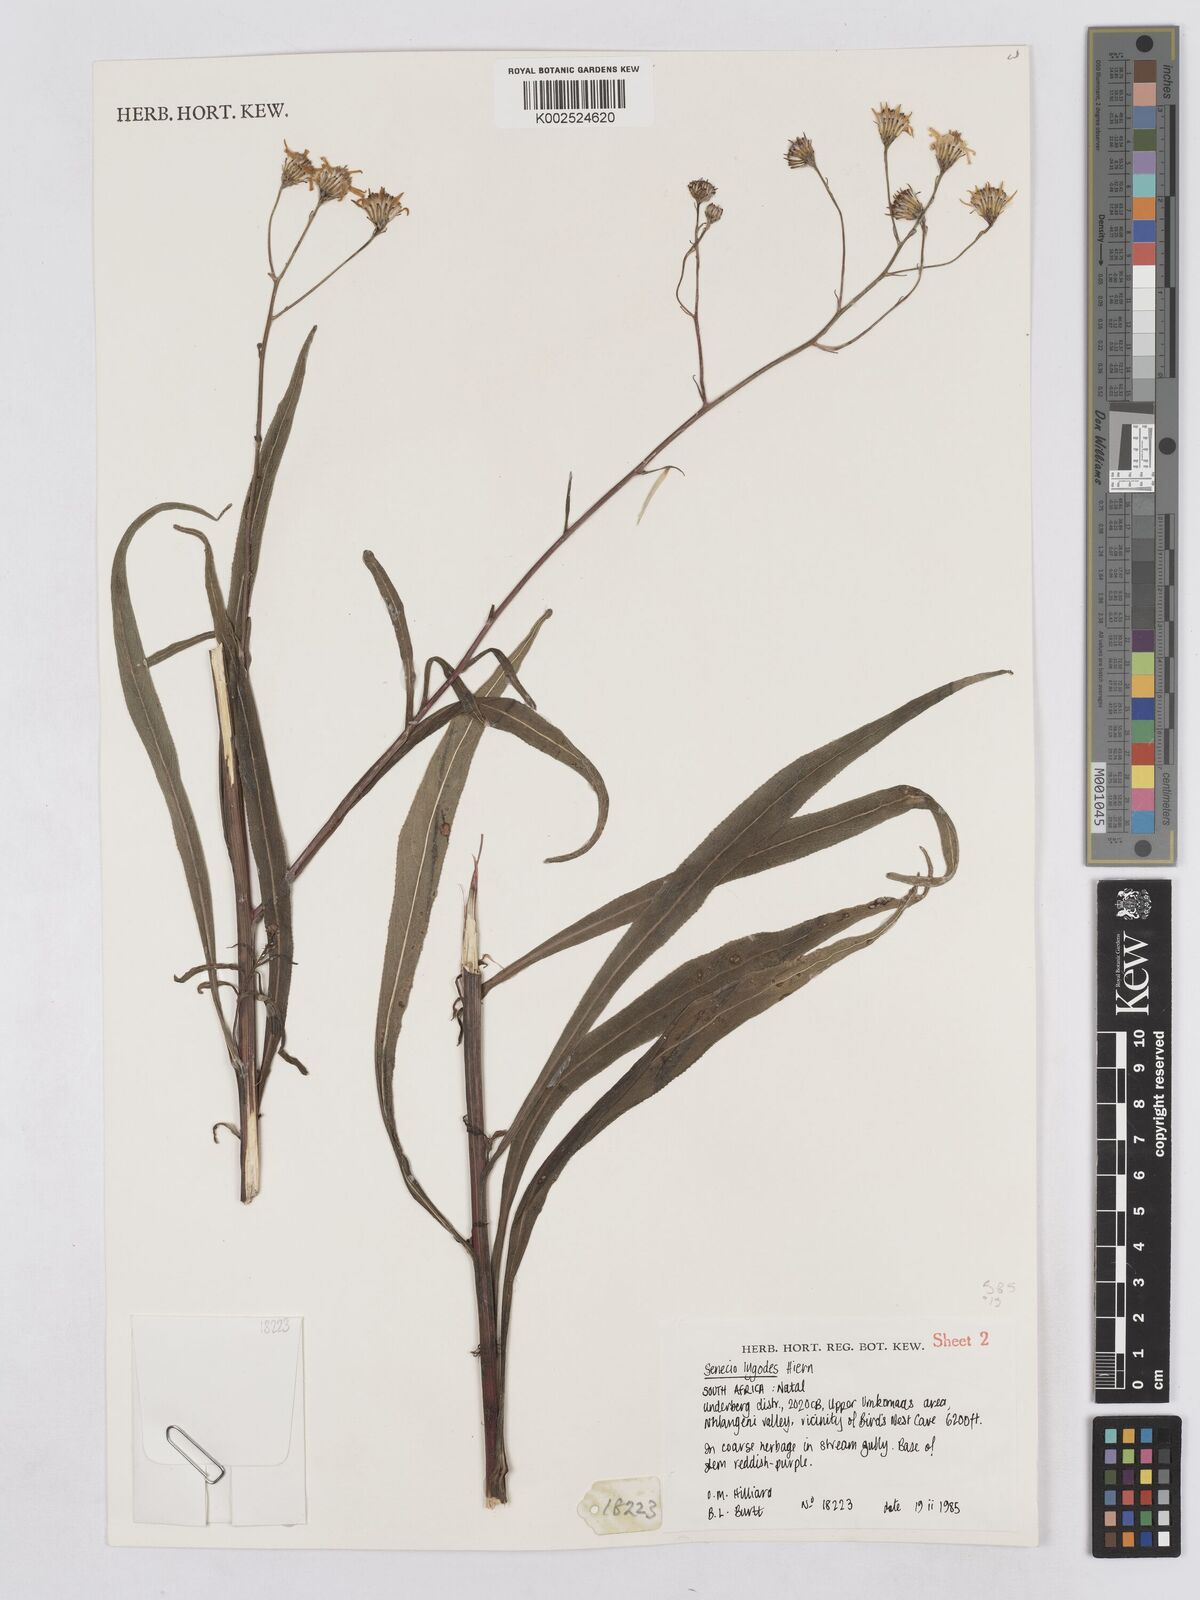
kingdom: Plantae
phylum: Tracheophyta
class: Magnoliopsida
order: Asterales
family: Asteraceae
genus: Senecio
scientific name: Senecio inornatus
